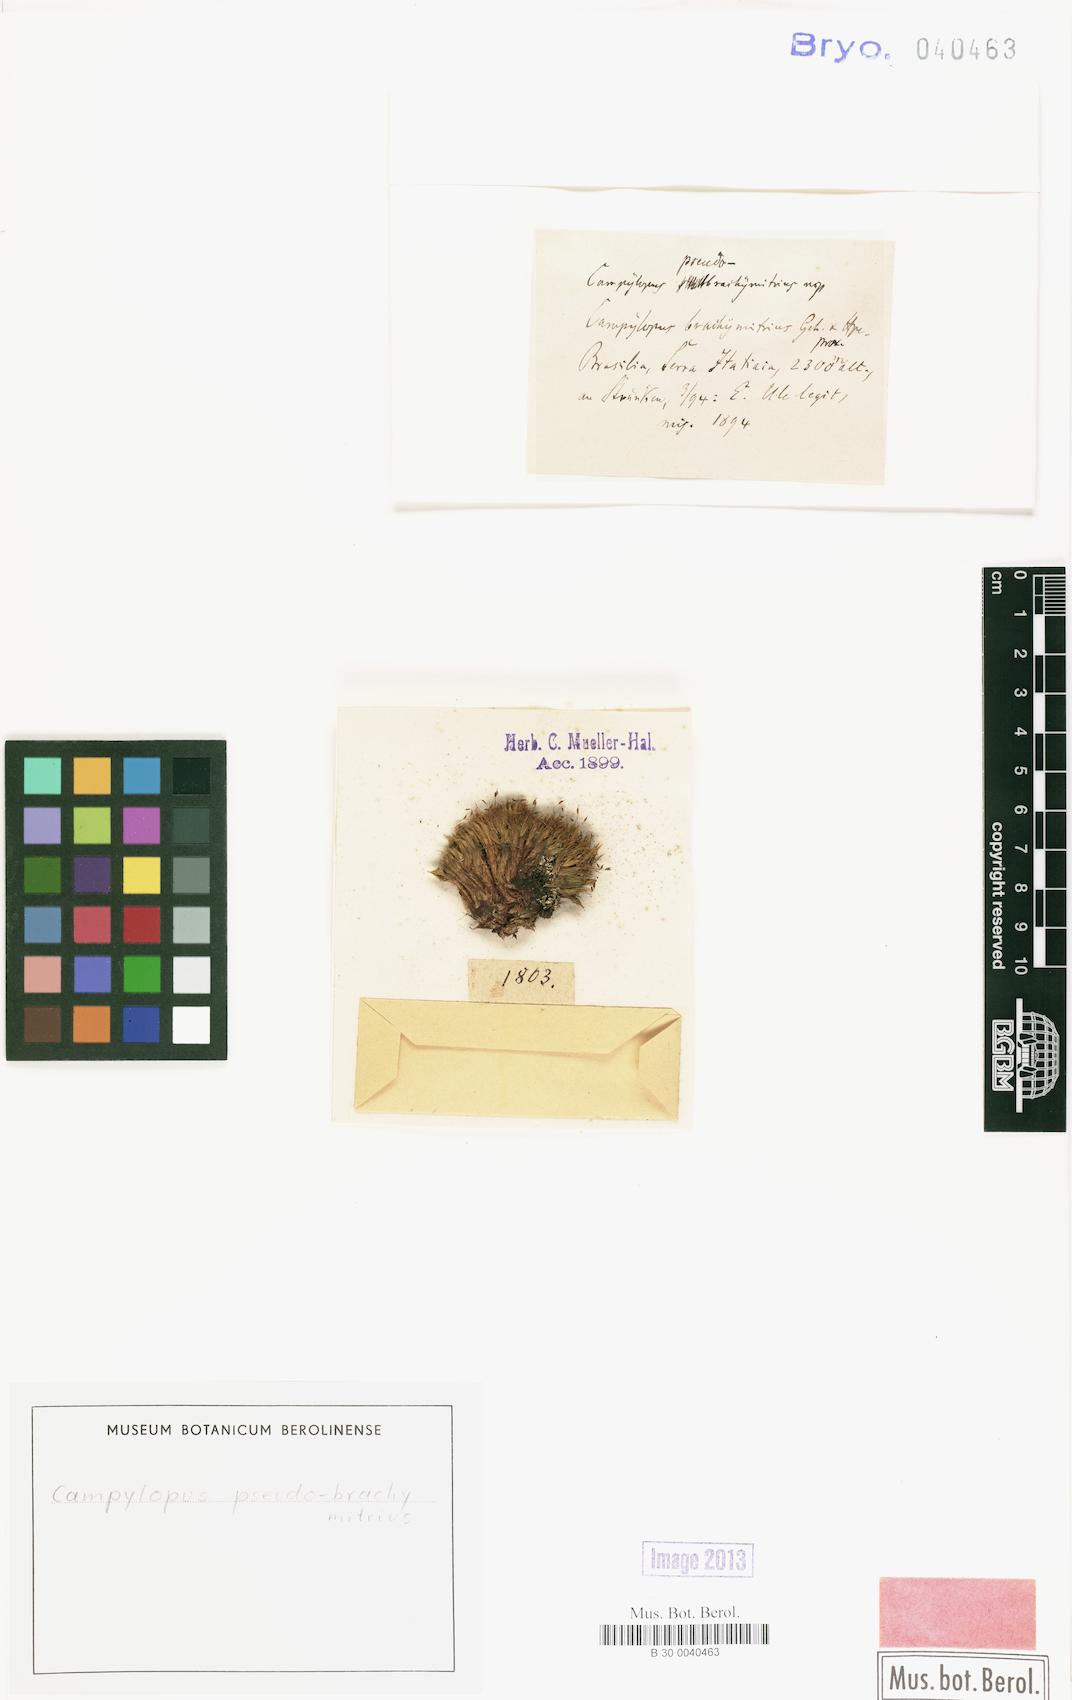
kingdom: Plantae
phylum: Bryophyta
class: Bryopsida
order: Dicranales
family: Leucobryaceae
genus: Campylopus
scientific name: Campylopus occultus
